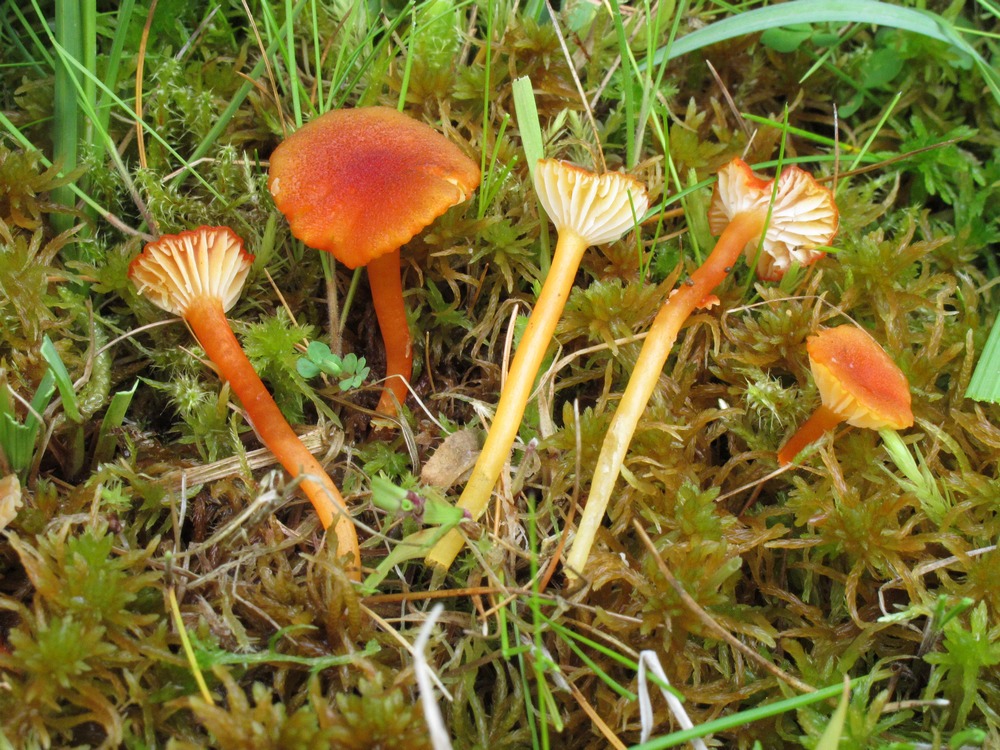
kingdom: Fungi
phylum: Basidiomycota
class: Agaricomycetes
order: Agaricales
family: Hygrophoraceae
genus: Hygrocybe
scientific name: Hygrocybe coccineocrenata
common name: tørvemos-vokshat
